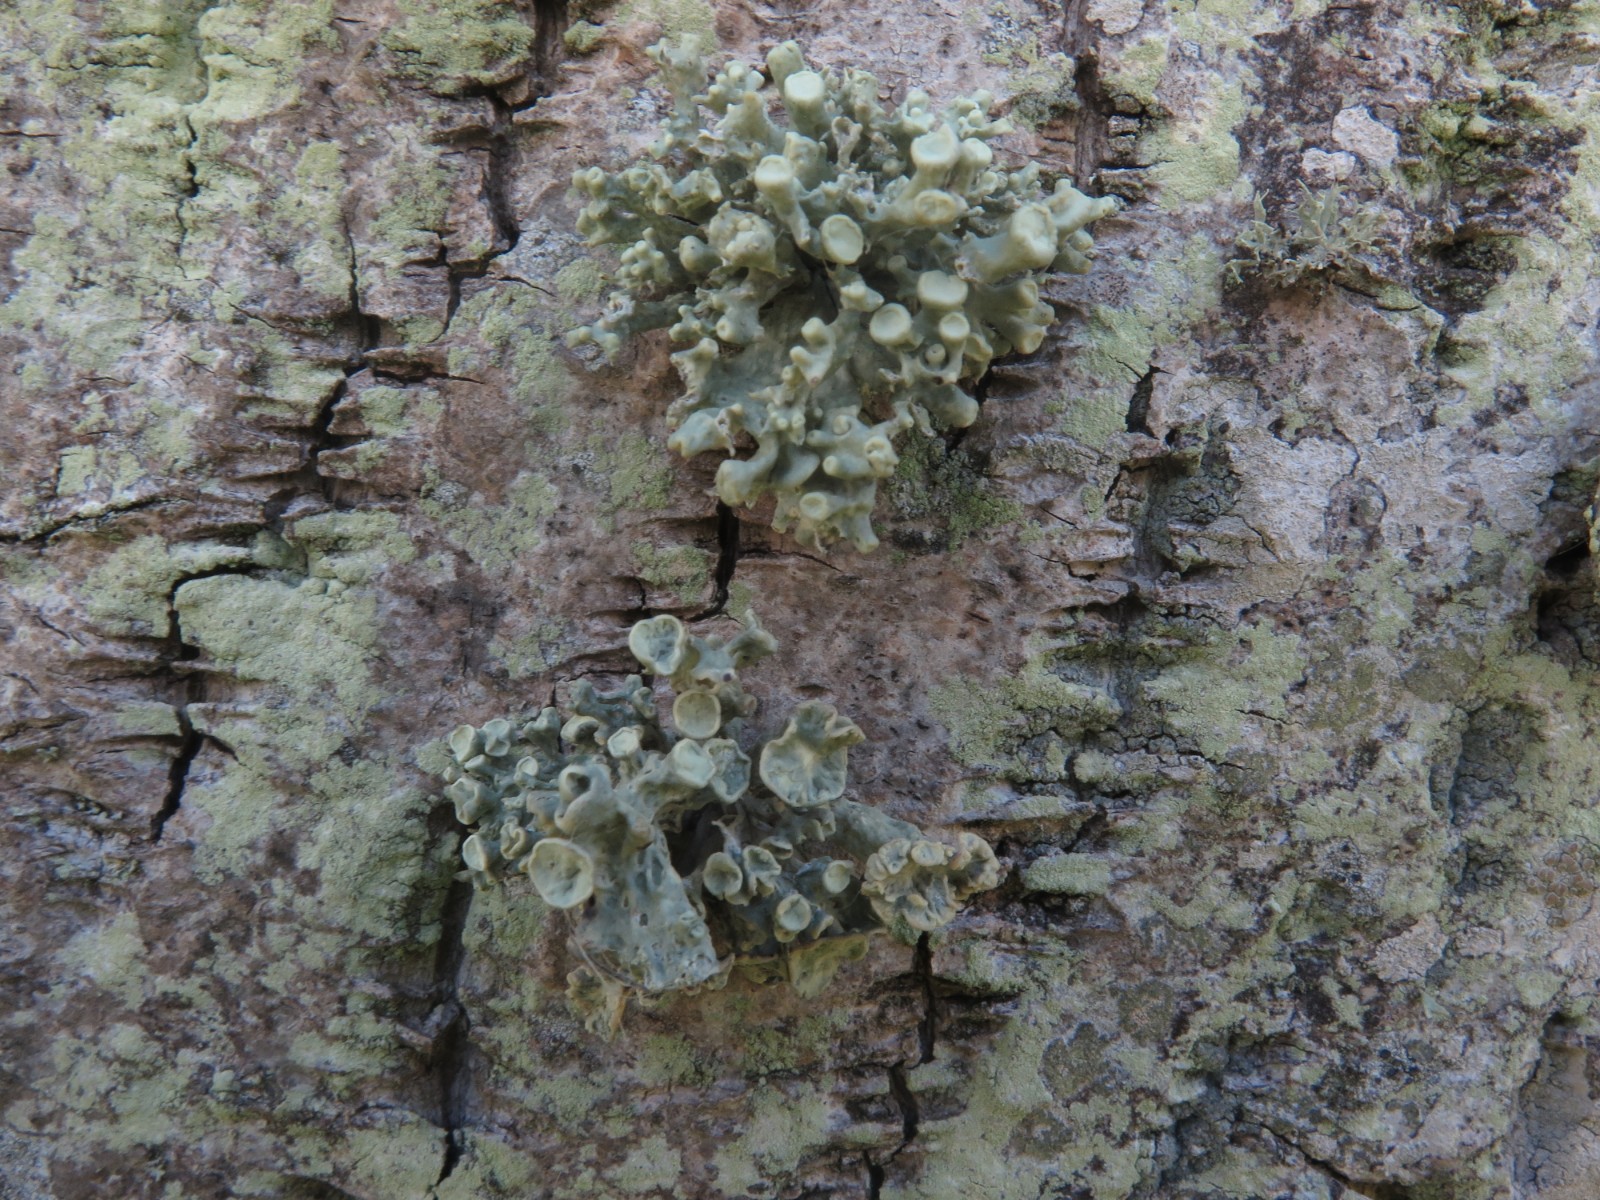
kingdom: Fungi
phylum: Ascomycota
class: Lecanoromycetes
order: Lecanorales
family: Ramalinaceae
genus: Ramalina
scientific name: Ramalina fastigiata
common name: tue-grenlav
